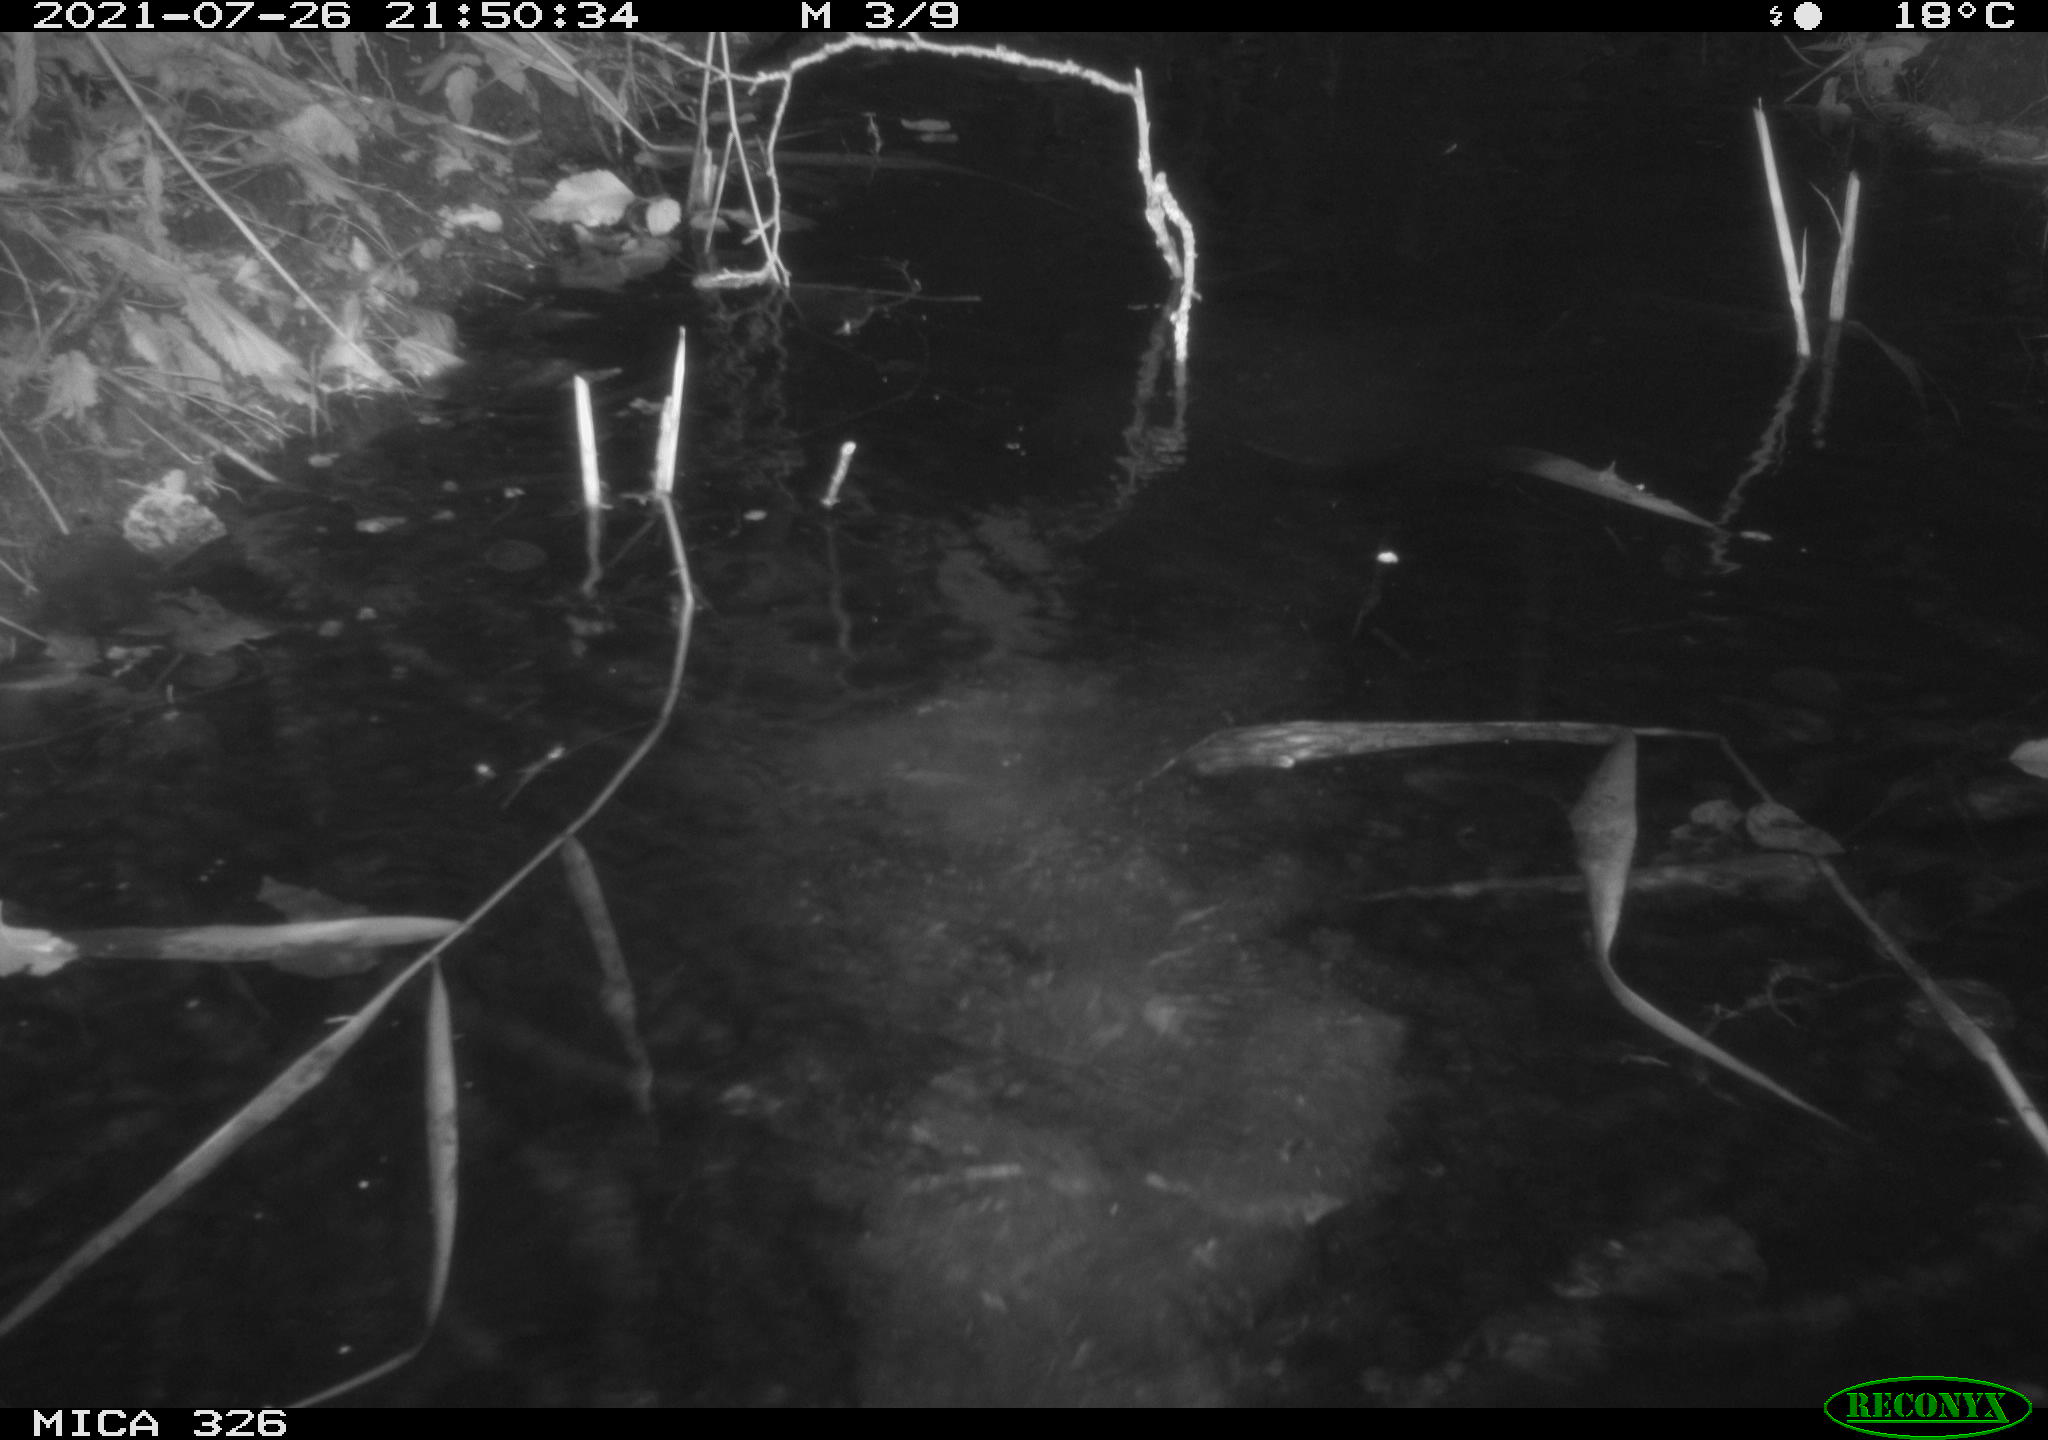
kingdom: Animalia
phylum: Chordata
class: Mammalia
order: Rodentia
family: Myocastoridae
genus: Myocastor
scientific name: Myocastor coypus
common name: Coypu
